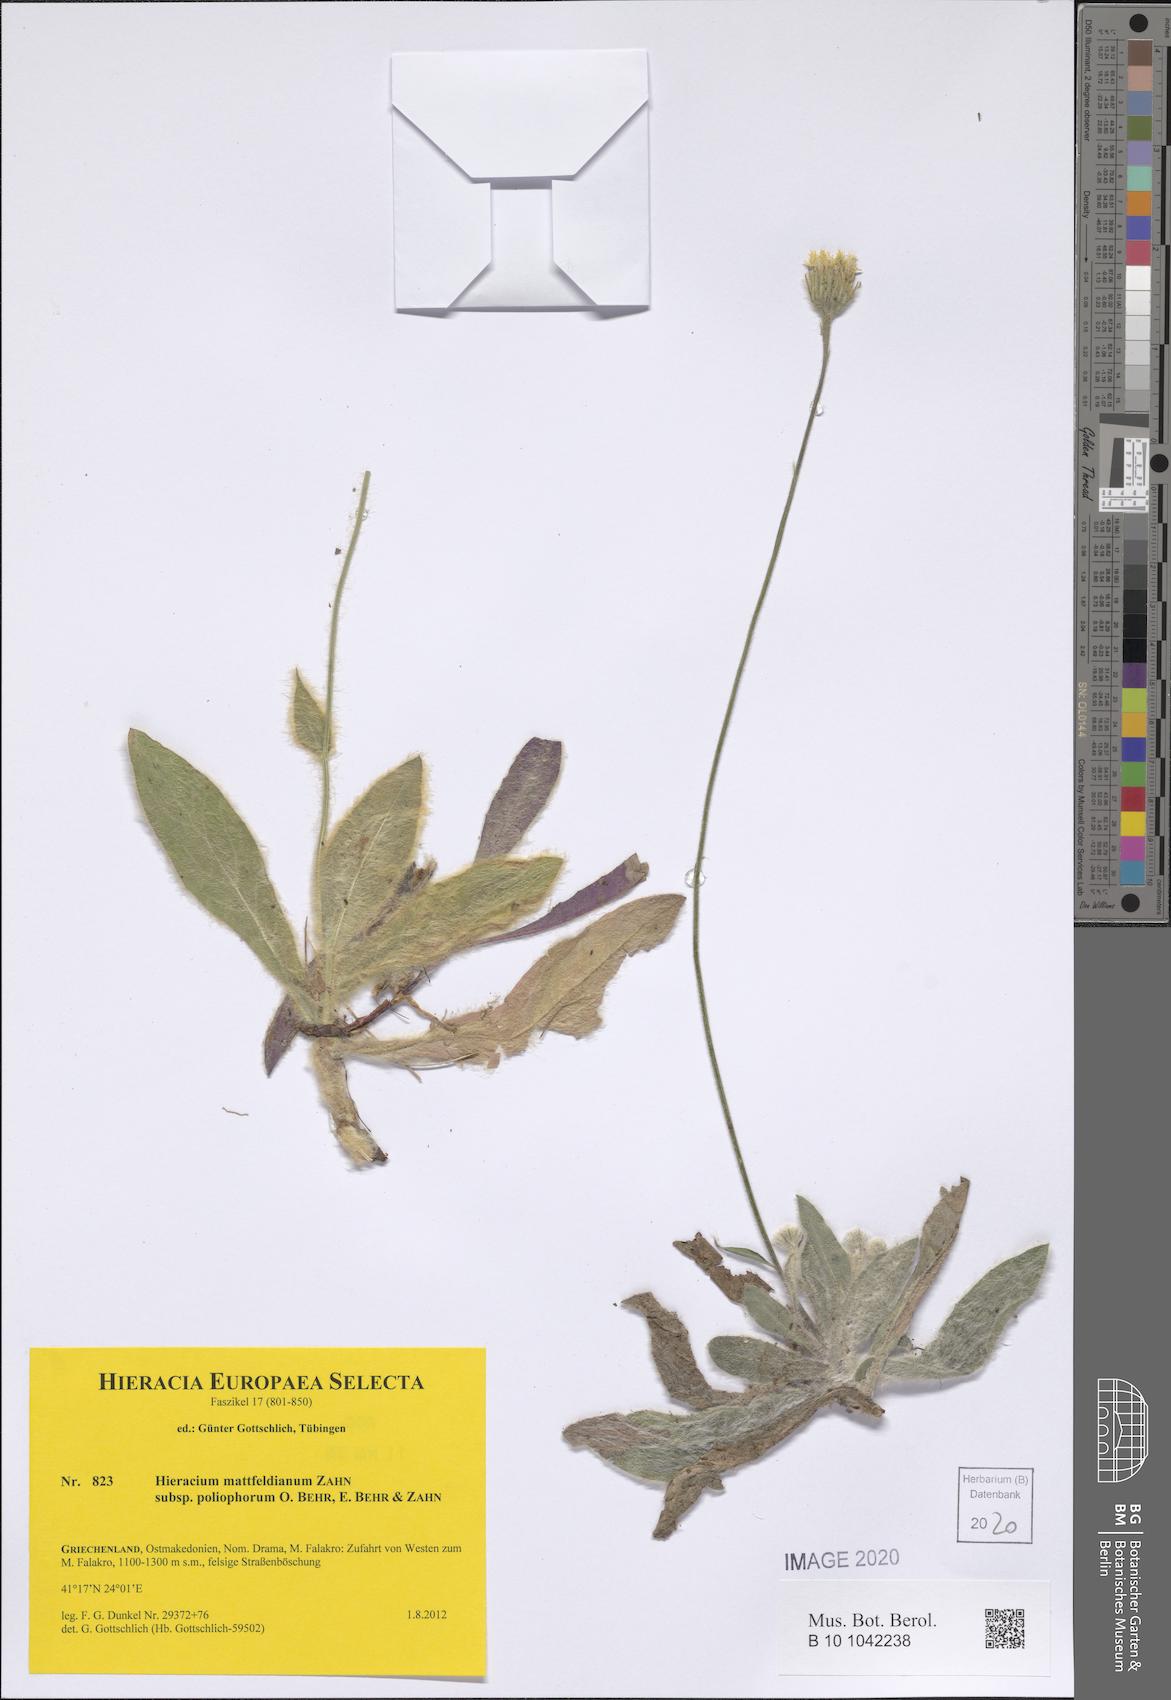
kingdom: Plantae
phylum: Tracheophyta
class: Magnoliopsida
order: Asterales
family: Asteraceae
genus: Hieracium
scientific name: Hieracium mattfeldianum
